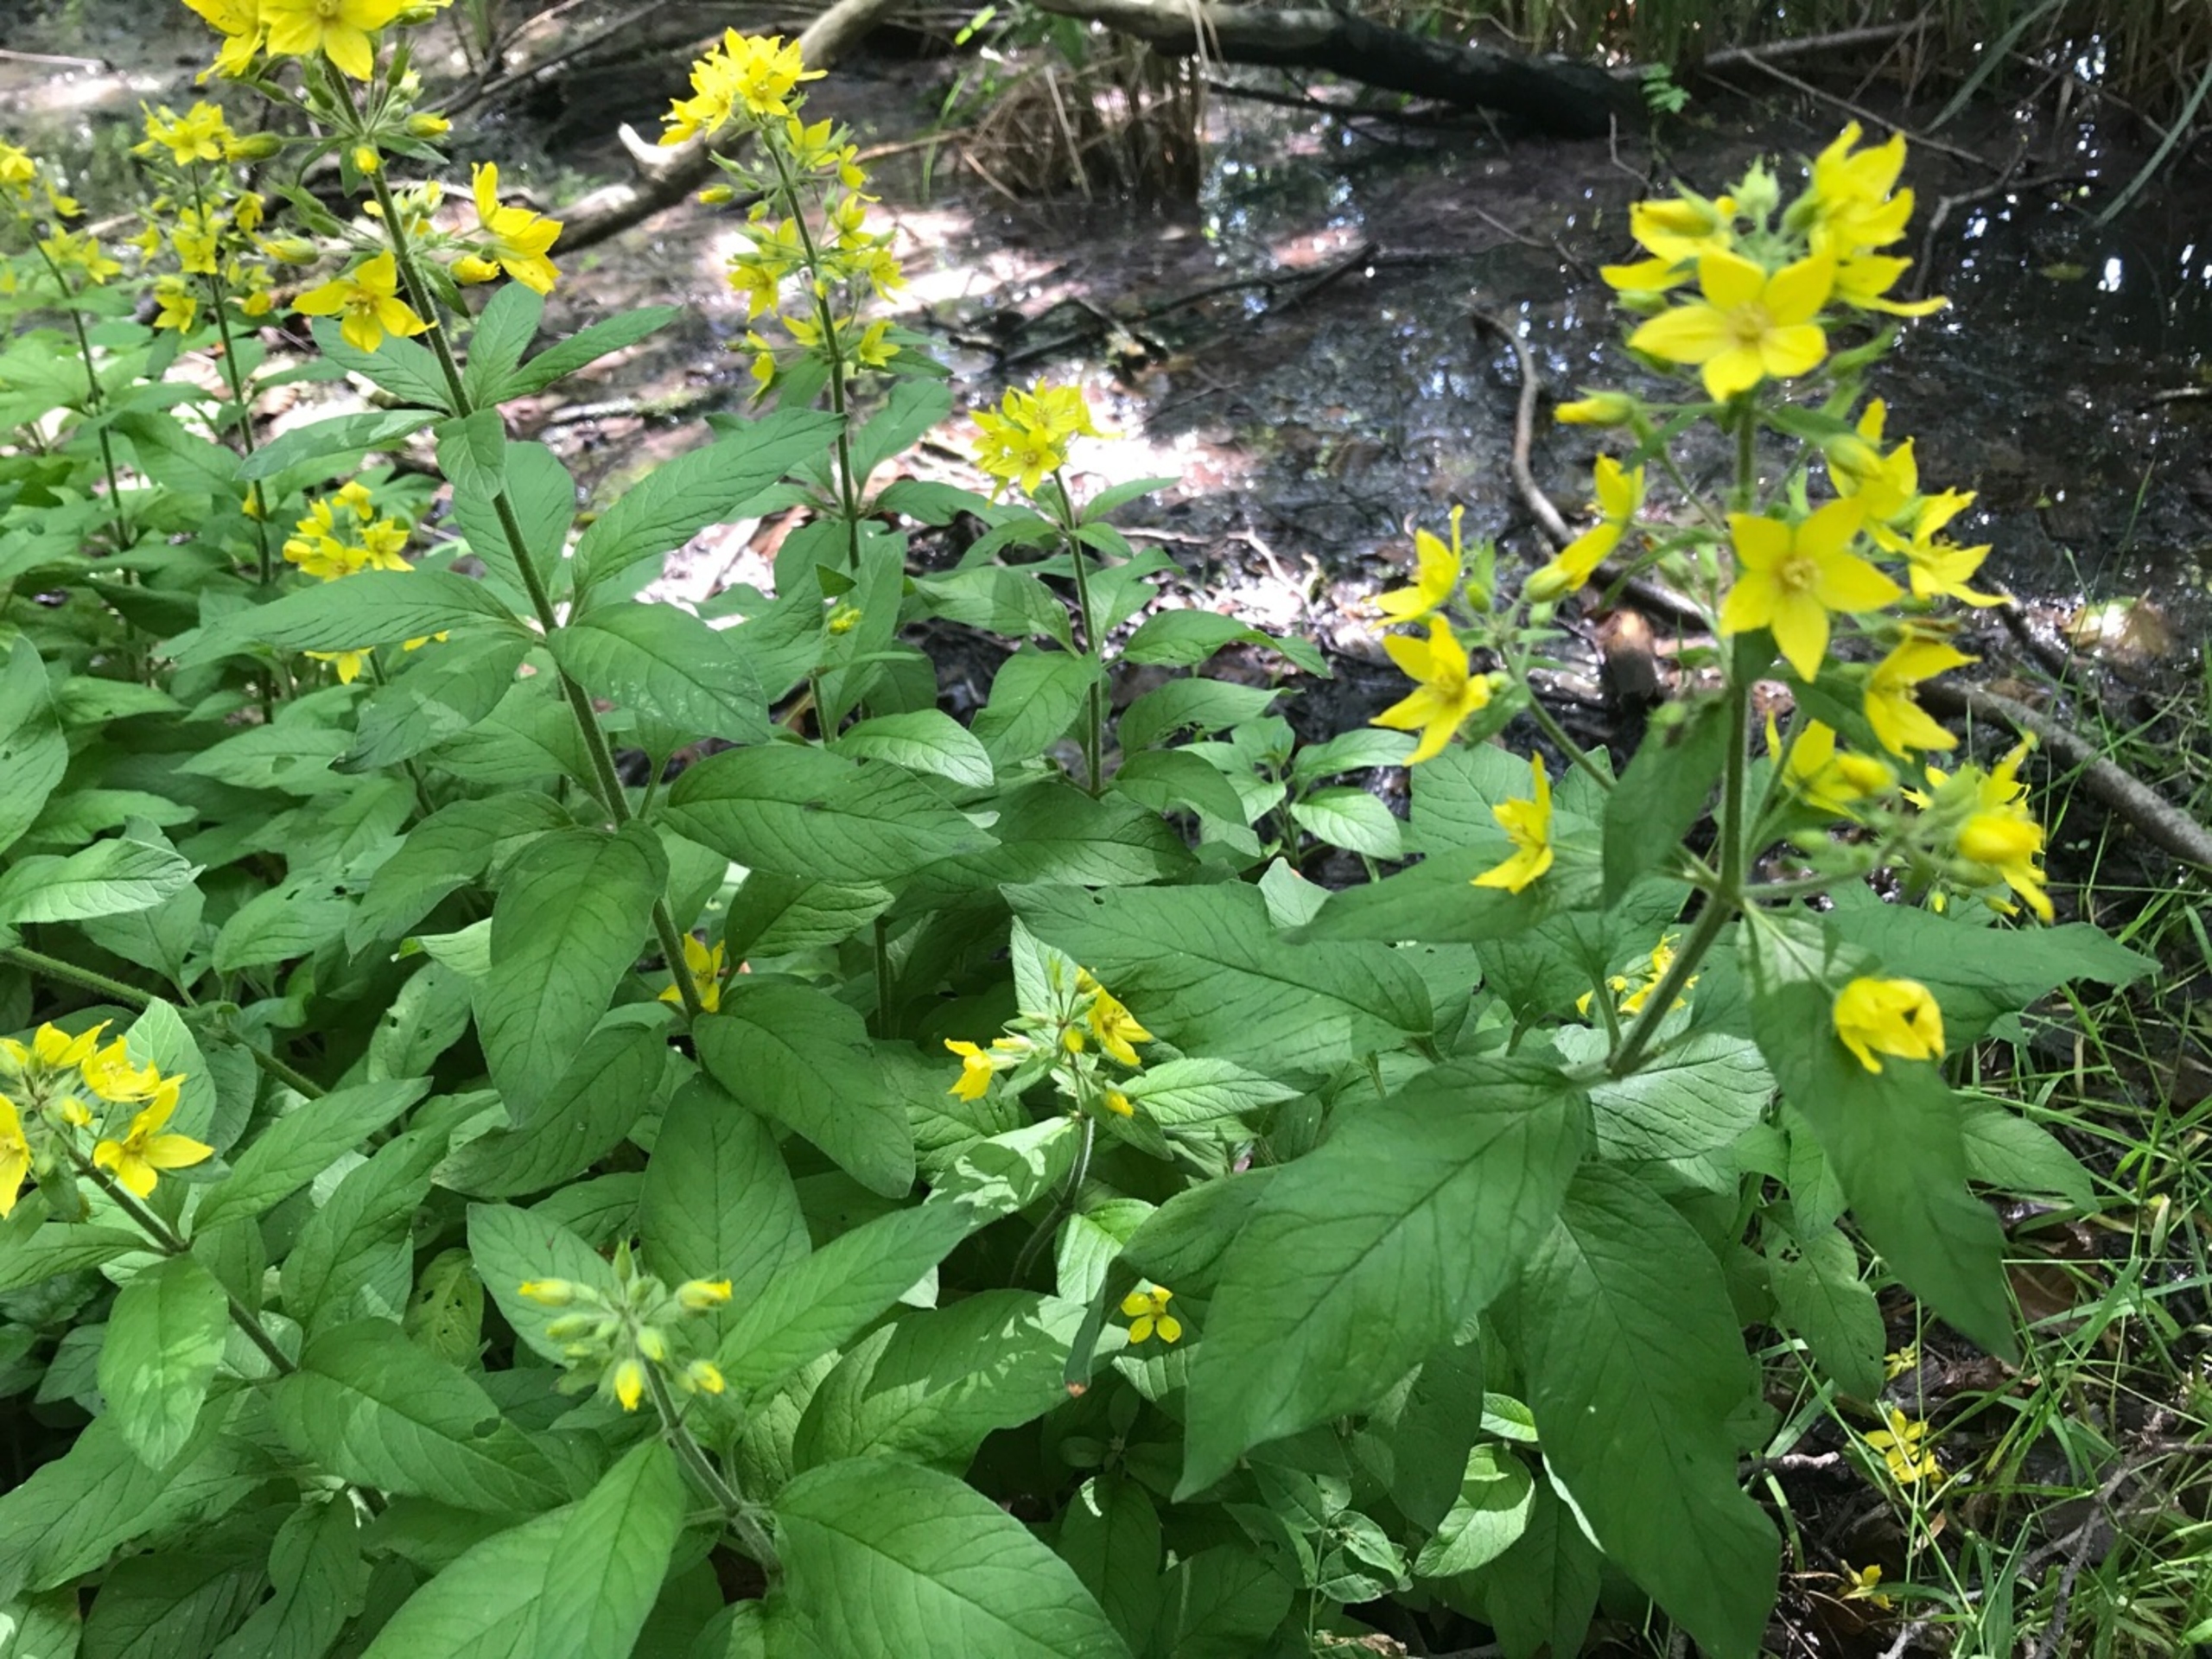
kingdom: Plantae
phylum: Tracheophyta
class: Magnoliopsida
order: Ericales
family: Primulaceae
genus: Lysimachia
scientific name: Lysimachia vulgaris
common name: Almindelig fredløs
